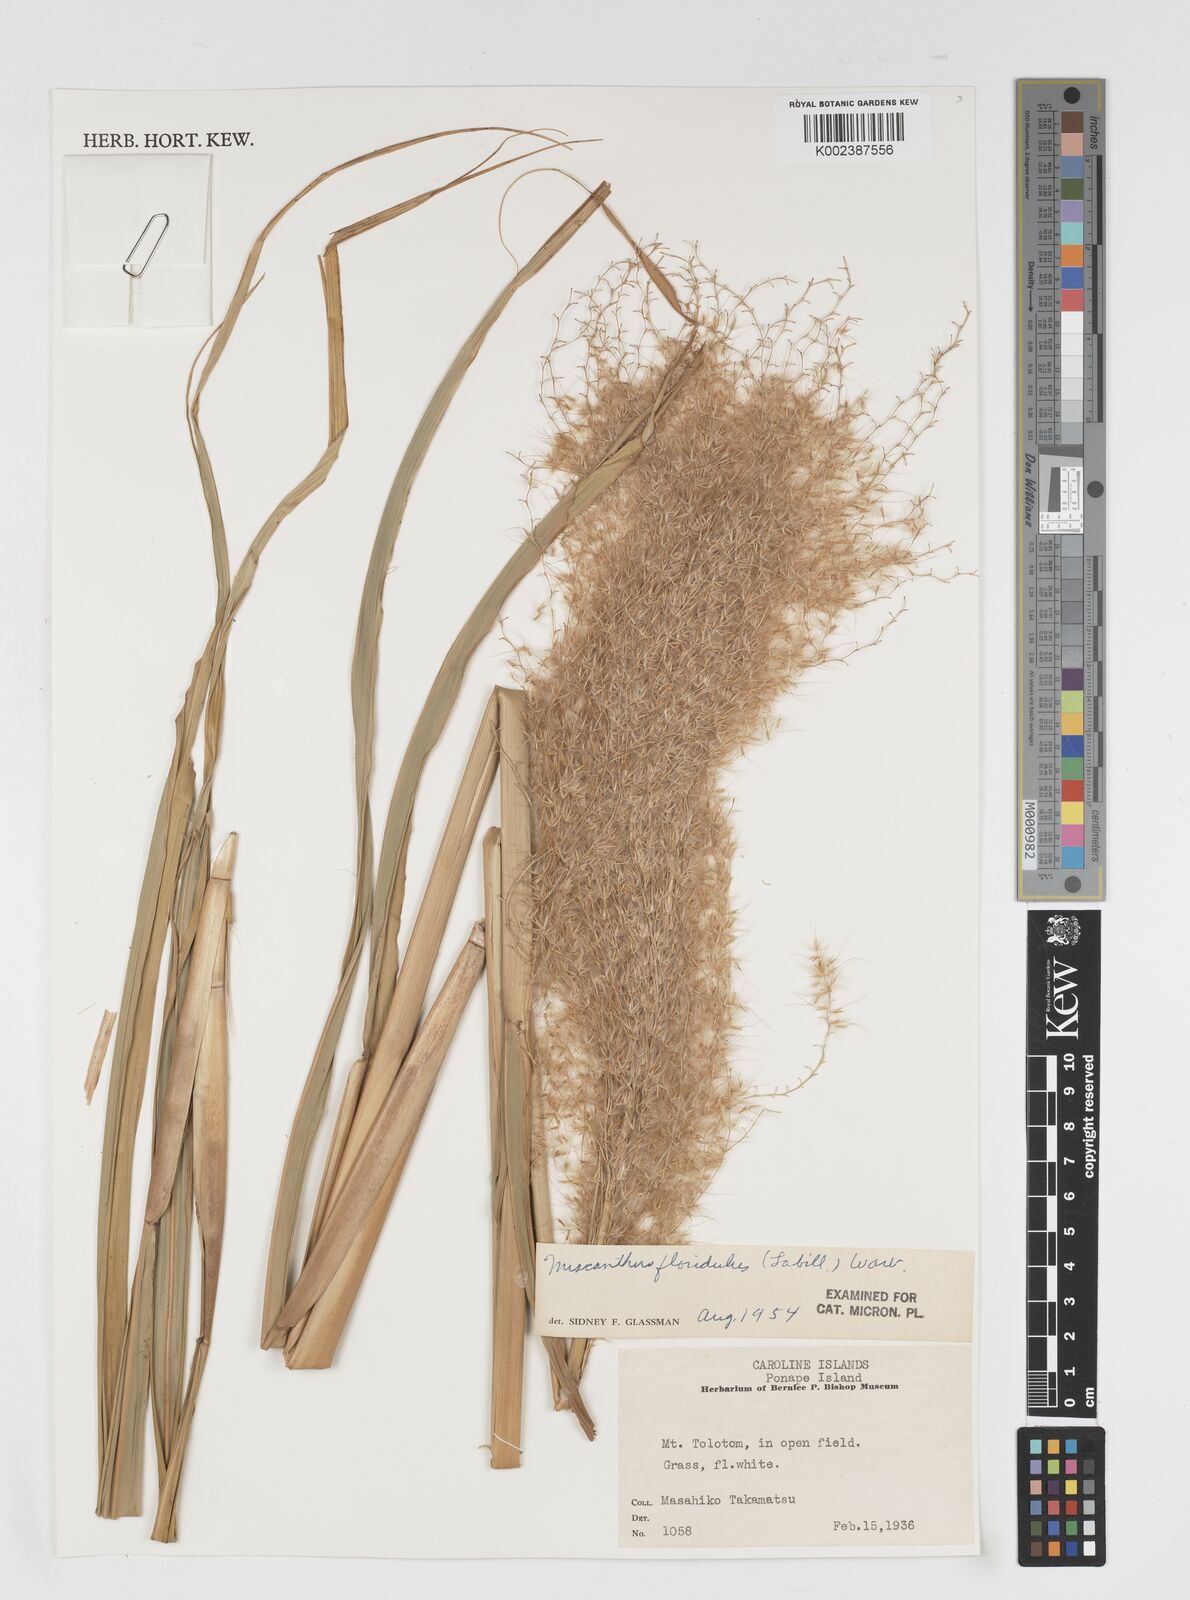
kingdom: Plantae
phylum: Tracheophyta
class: Liliopsida
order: Poales
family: Poaceae
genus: Miscanthus
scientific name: Miscanthus
